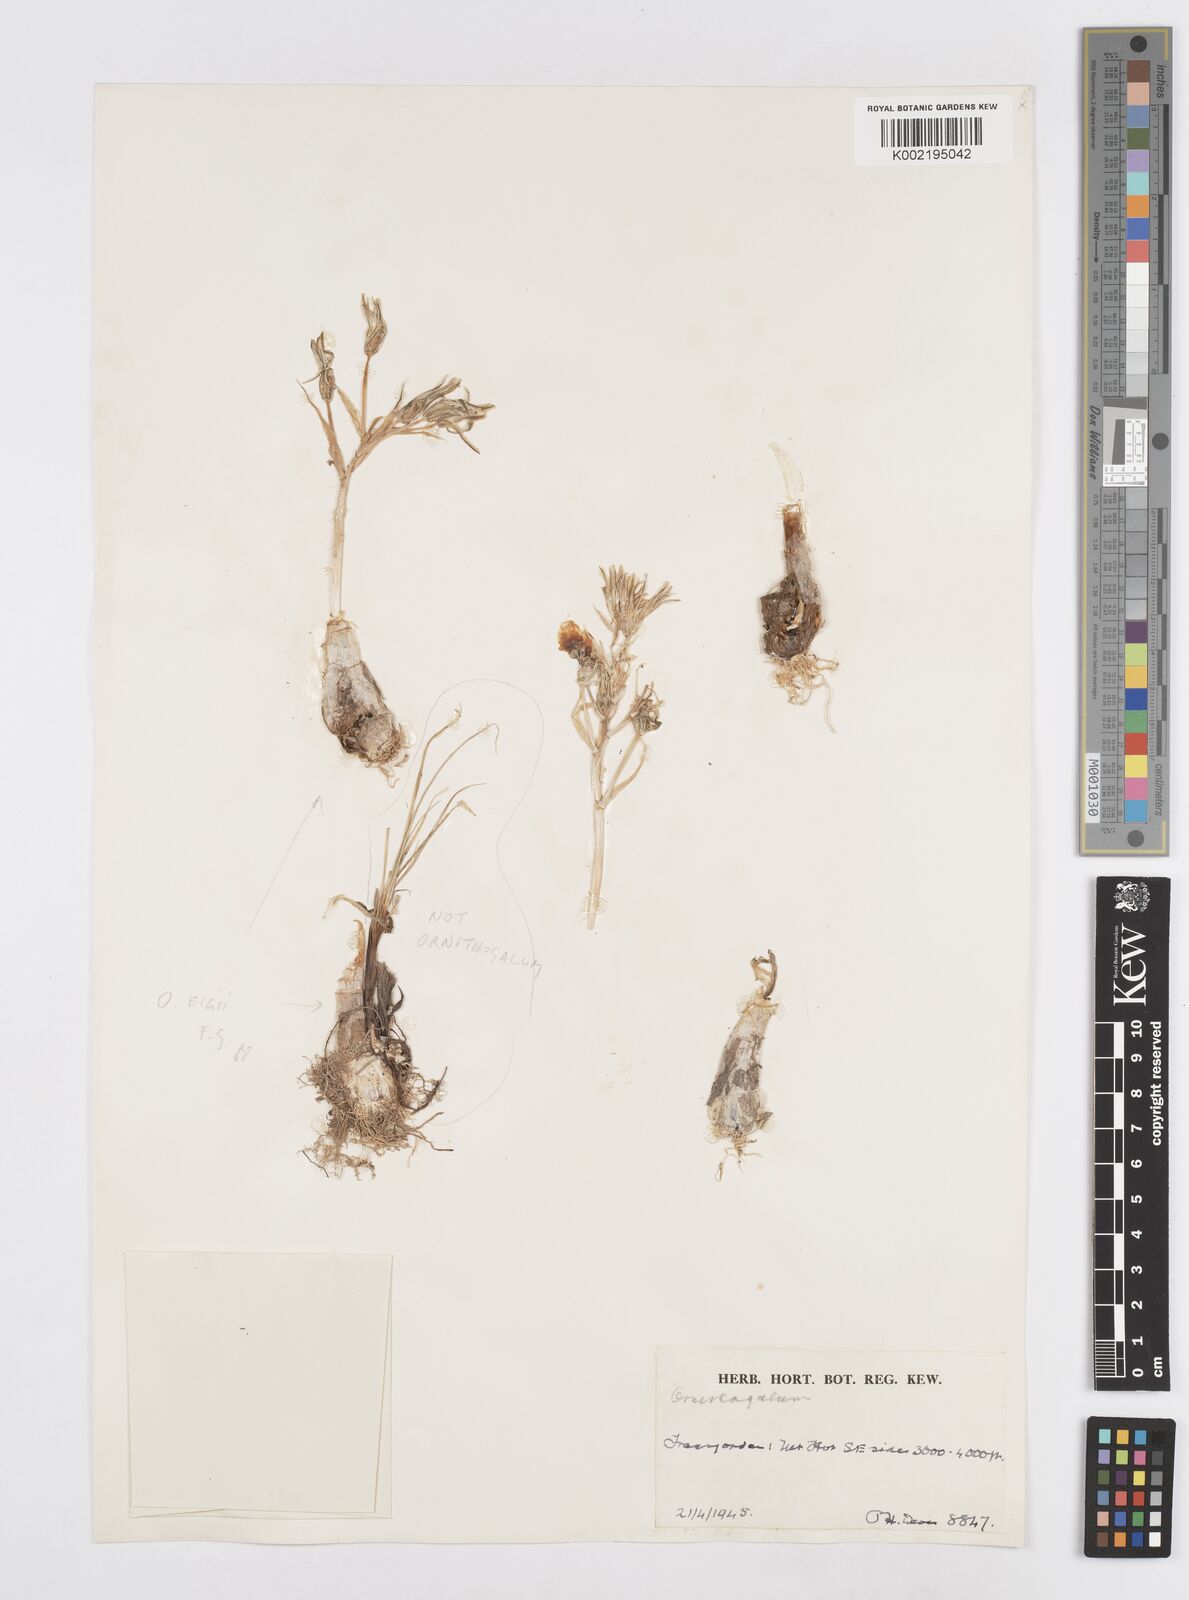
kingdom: Plantae
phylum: Tracheophyta
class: Liliopsida
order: Asparagales
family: Asparagaceae
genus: Ornithogalum
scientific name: Ornithogalum neurostegium
